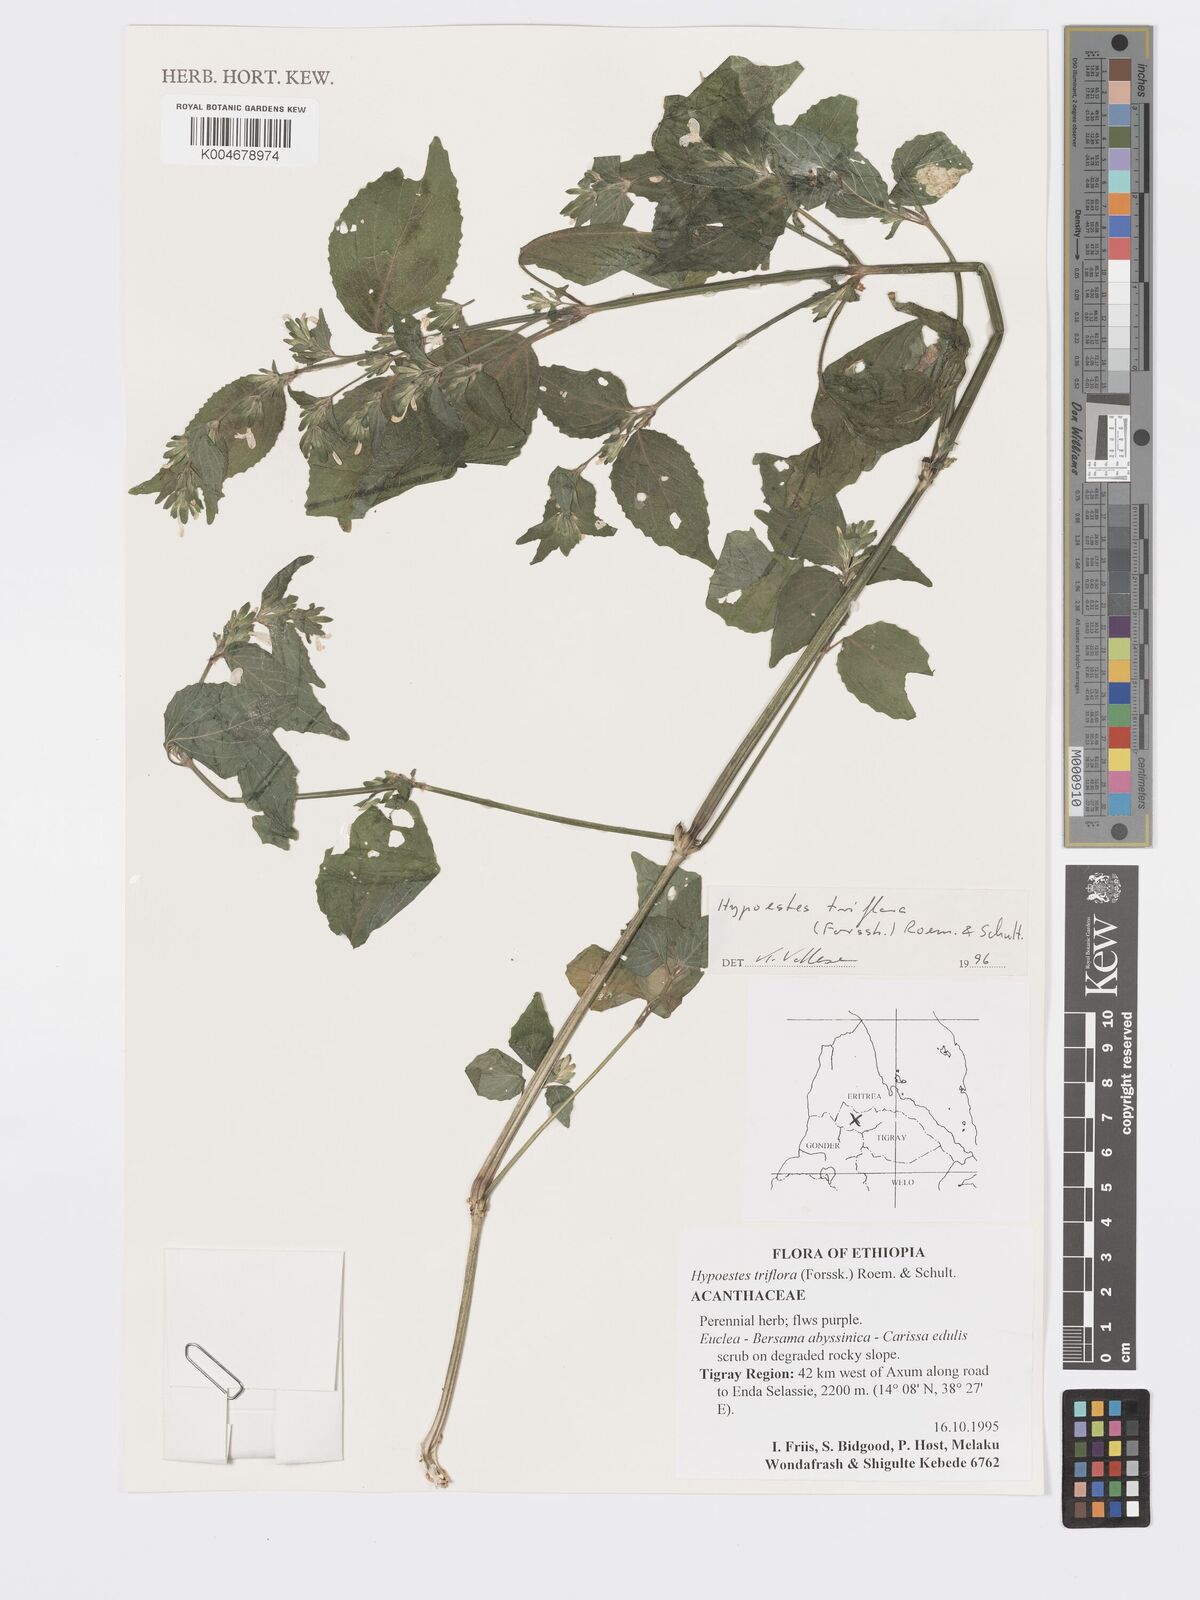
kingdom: Plantae
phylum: Tracheophyta
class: Magnoliopsida
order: Lamiales
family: Acanthaceae
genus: Hypoestes
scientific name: Hypoestes triflora
